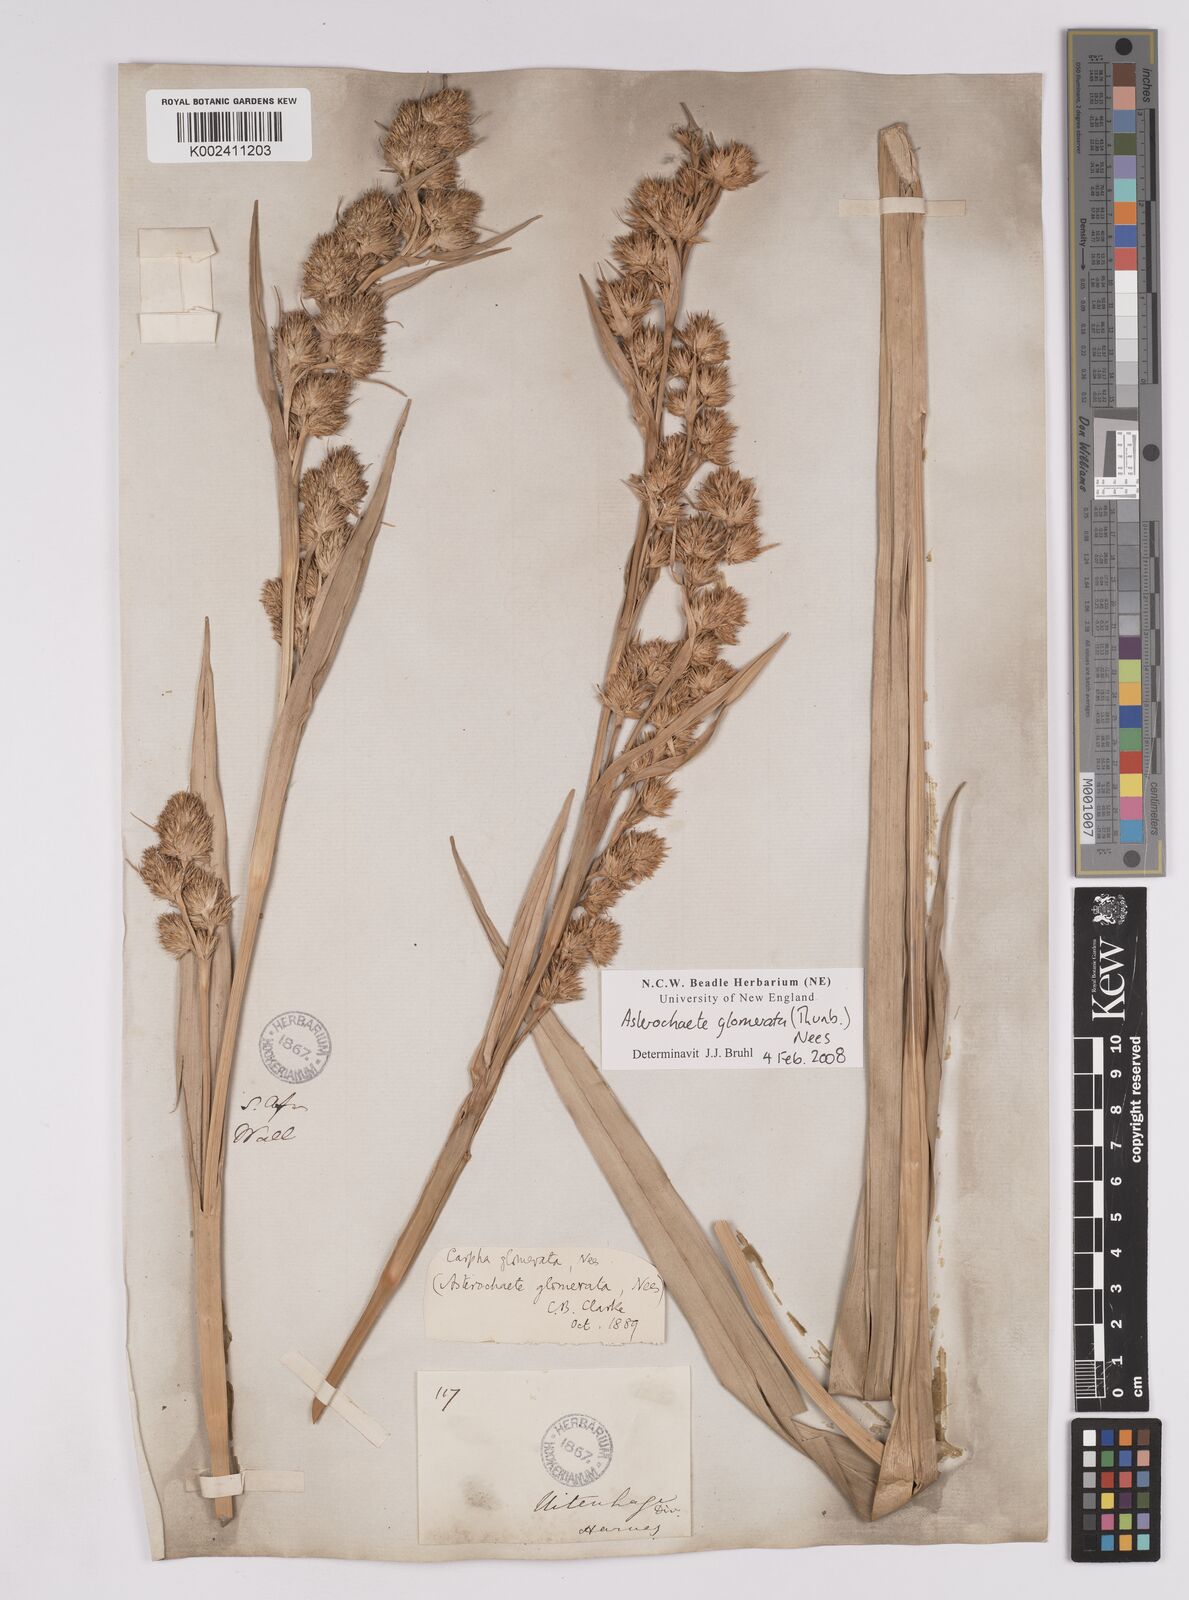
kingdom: Plantae
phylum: Tracheophyta
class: Liliopsida
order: Poales
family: Cyperaceae
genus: Carpha
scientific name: Carpha
